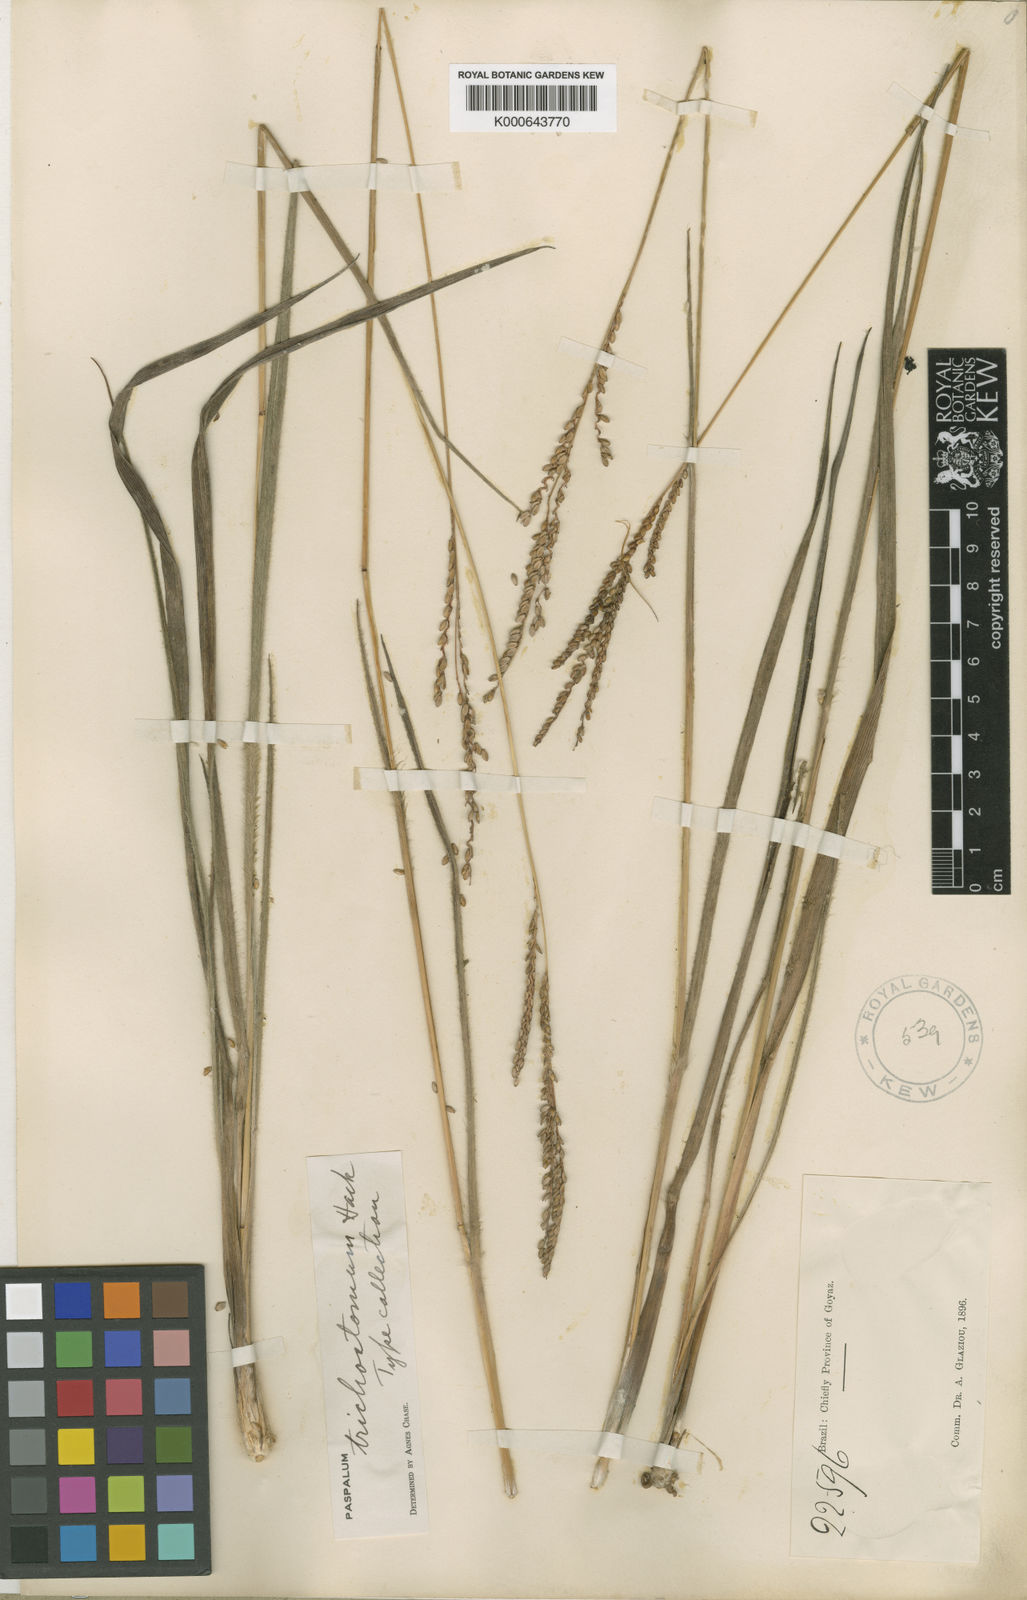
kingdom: Plantae
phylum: Tracheophyta
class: Liliopsida
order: Poales
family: Poaceae
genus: Paspalum
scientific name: Paspalum
